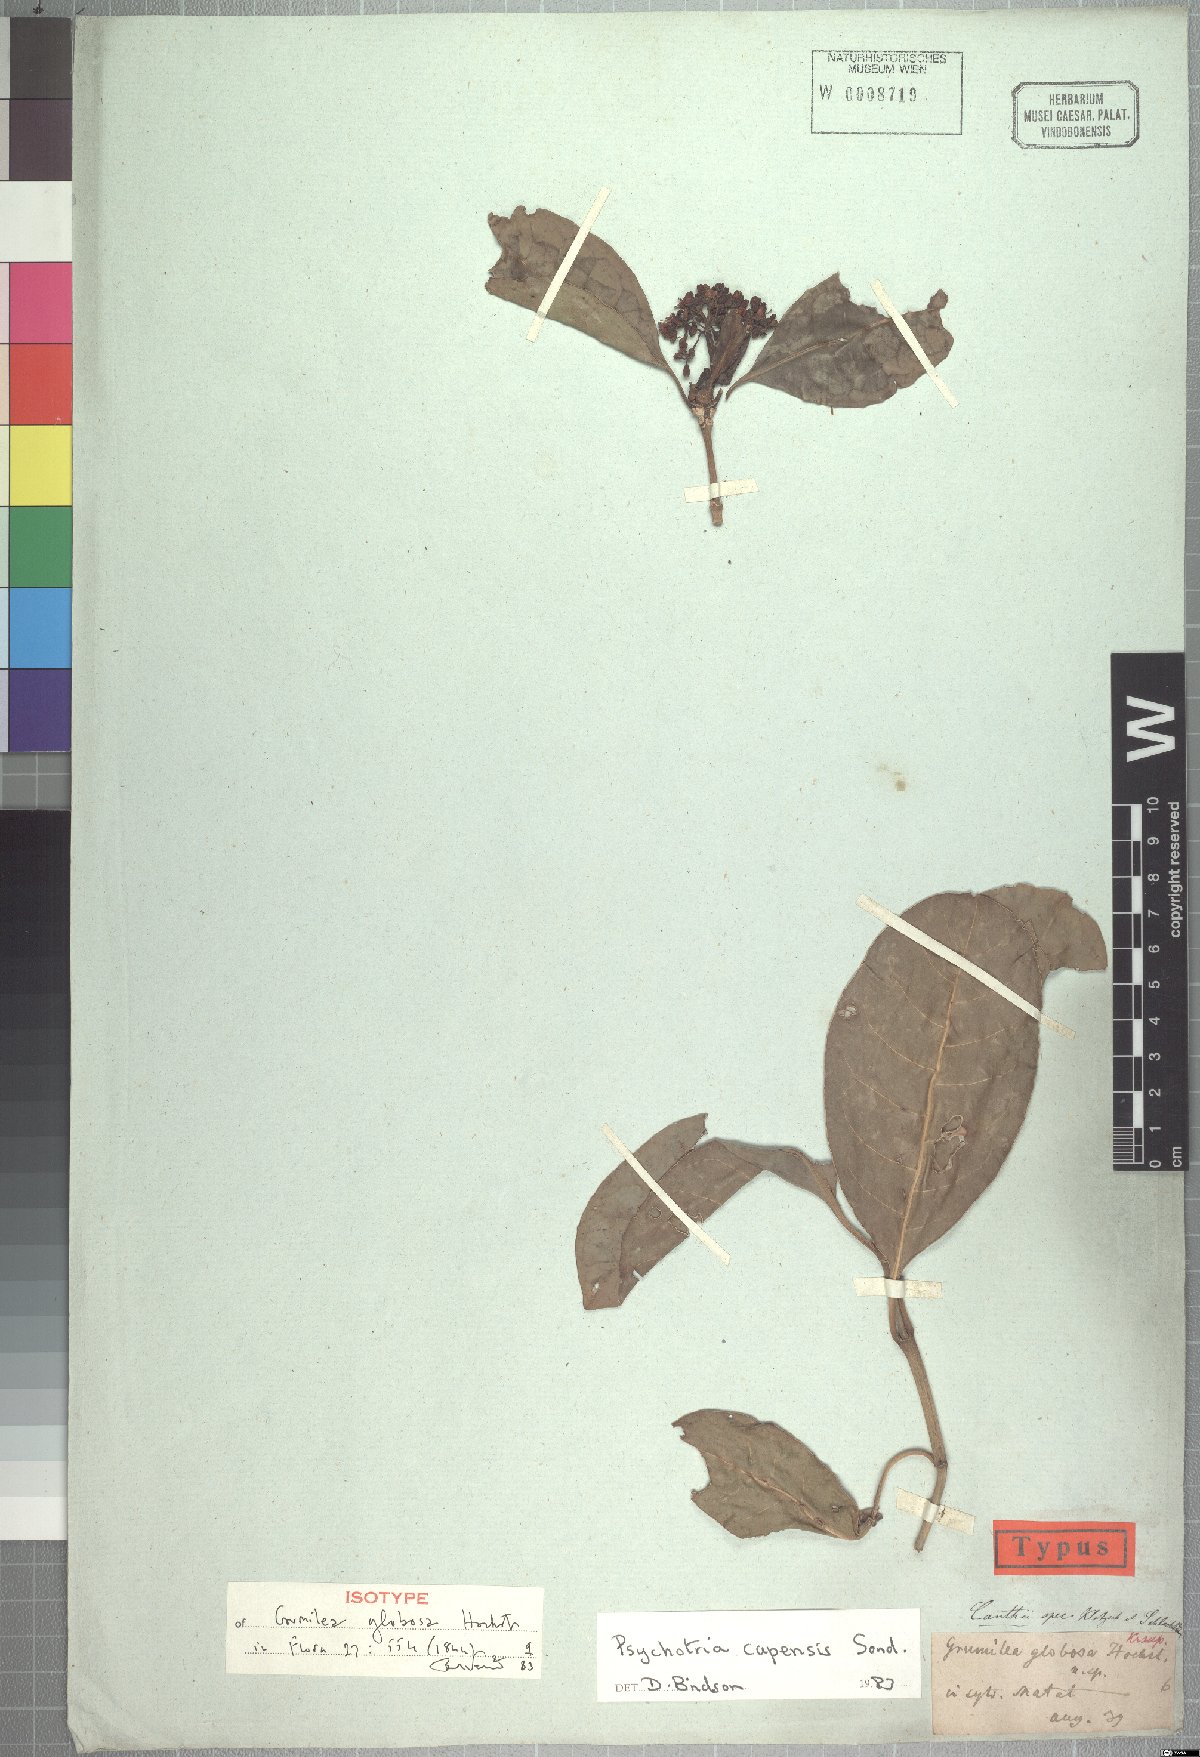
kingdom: Plantae
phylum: Tracheophyta
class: Magnoliopsida
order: Gentianales
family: Rubiaceae
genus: Psychotria
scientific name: Psychotria capensis
